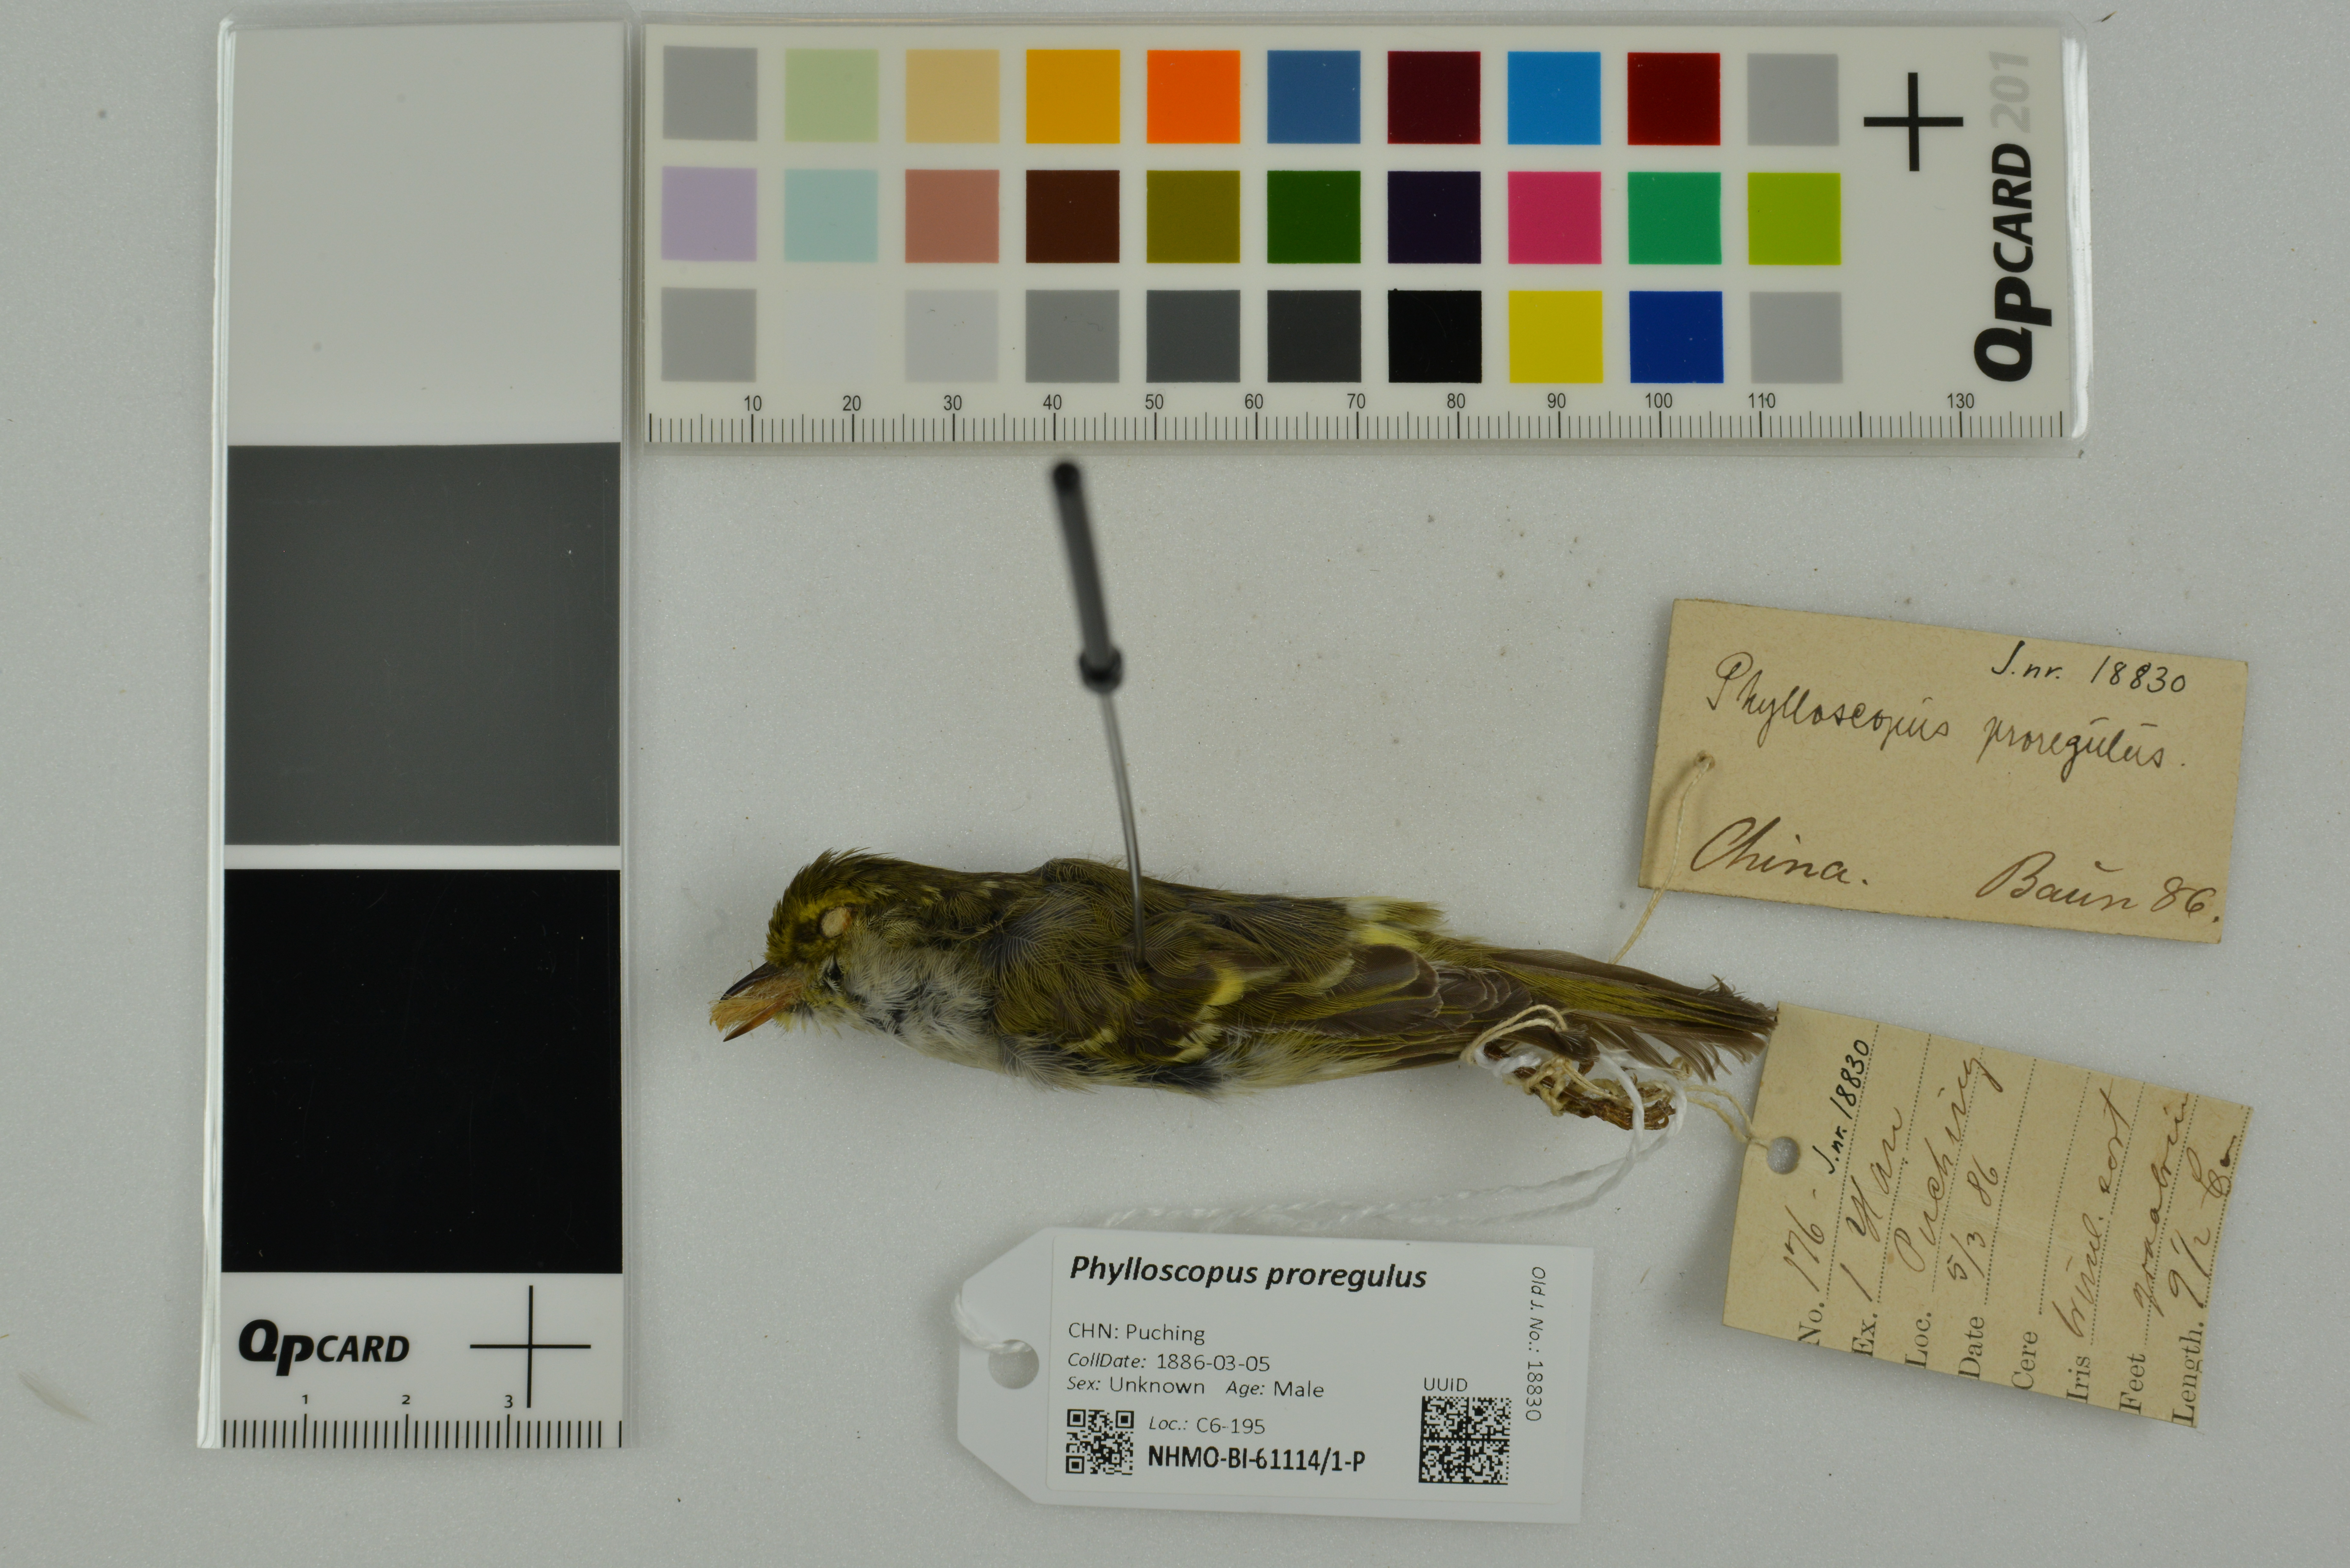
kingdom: Animalia
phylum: Chordata
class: Aves
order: Passeriformes
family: Phylloscopidae
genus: Phylloscopus
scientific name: Phylloscopus proregulus
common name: Pallas's leaf warbler
